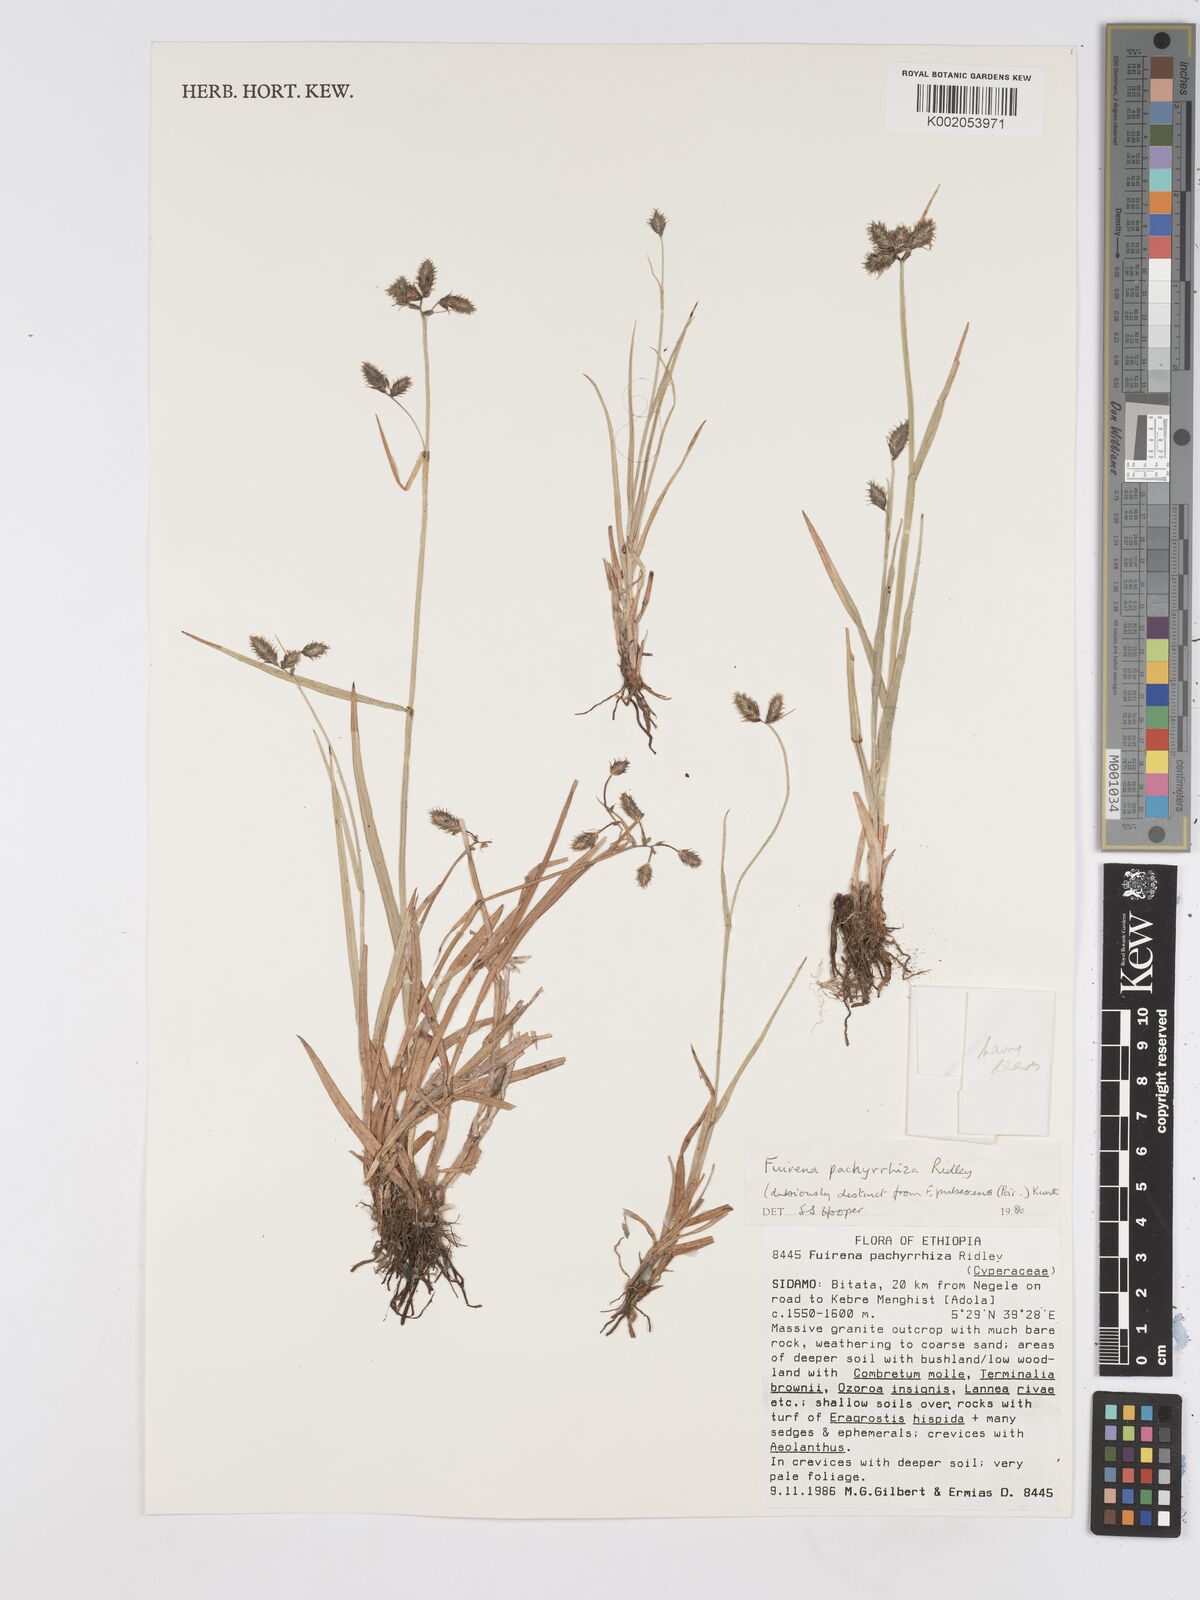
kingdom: Plantae
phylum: Tracheophyta
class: Liliopsida
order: Poales
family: Cyperaceae
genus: Fuirena
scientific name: Fuirena pachyrrhiza
